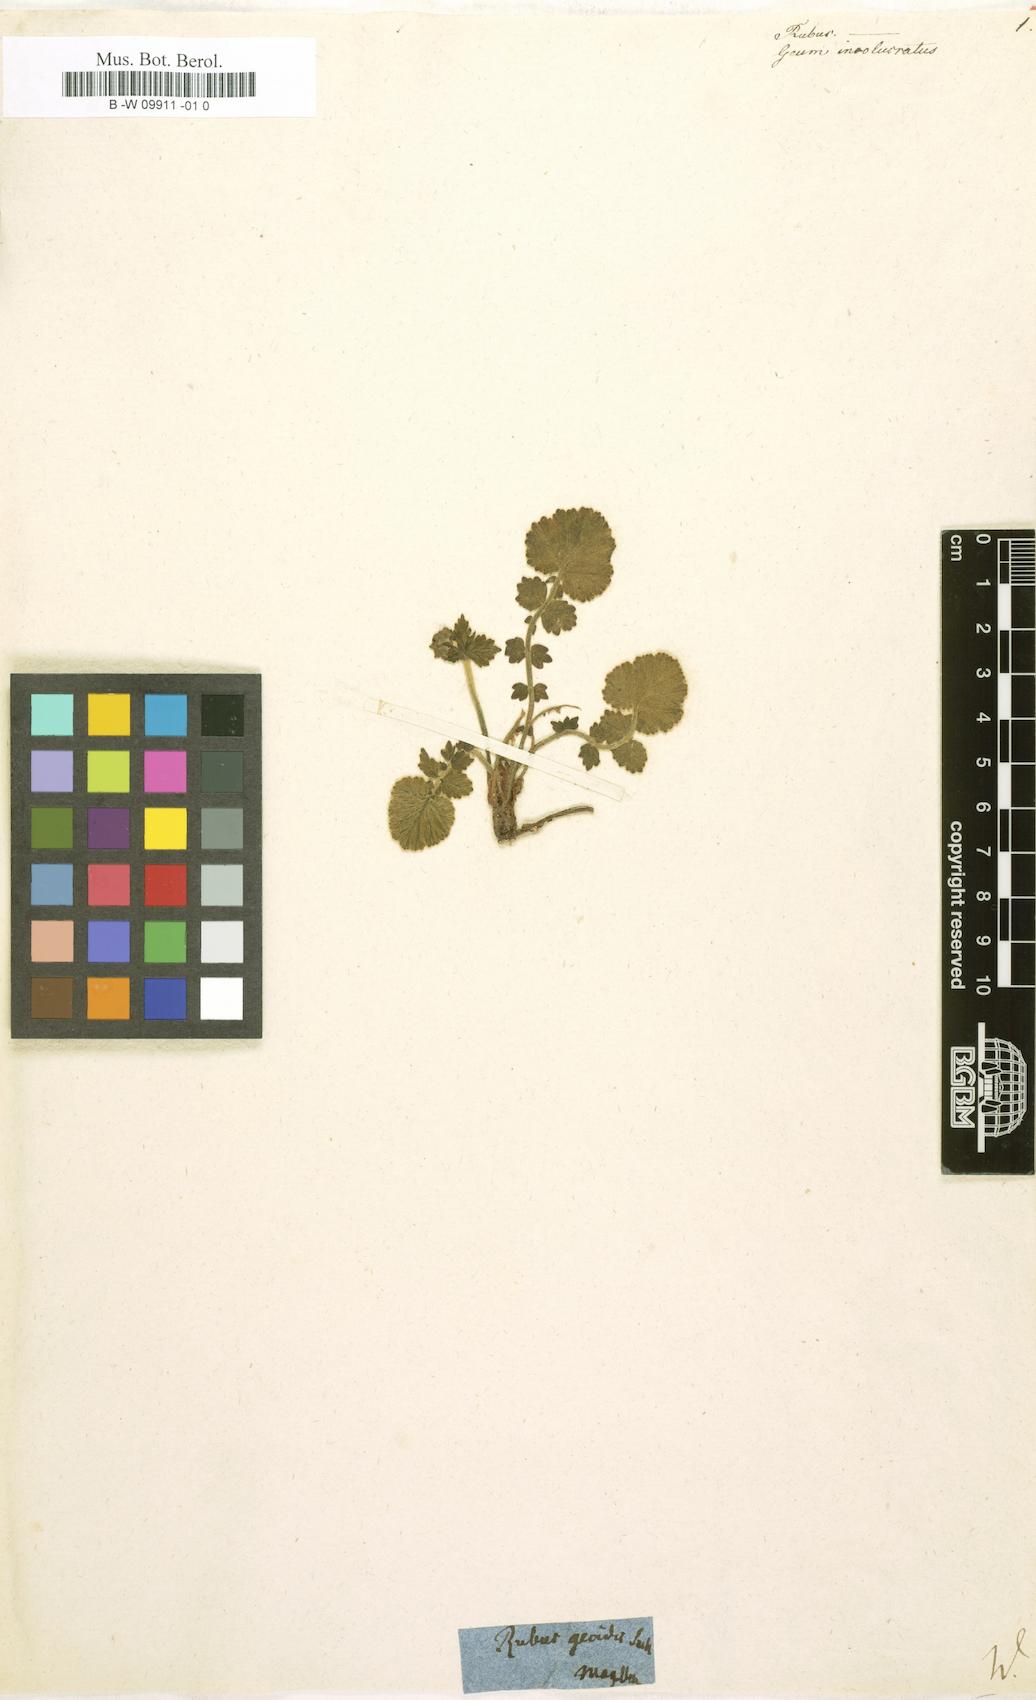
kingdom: Plantae
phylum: Tracheophyta
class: Magnoliopsida
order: Rosales
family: Rosaceae
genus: Rubus
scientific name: Rubus
